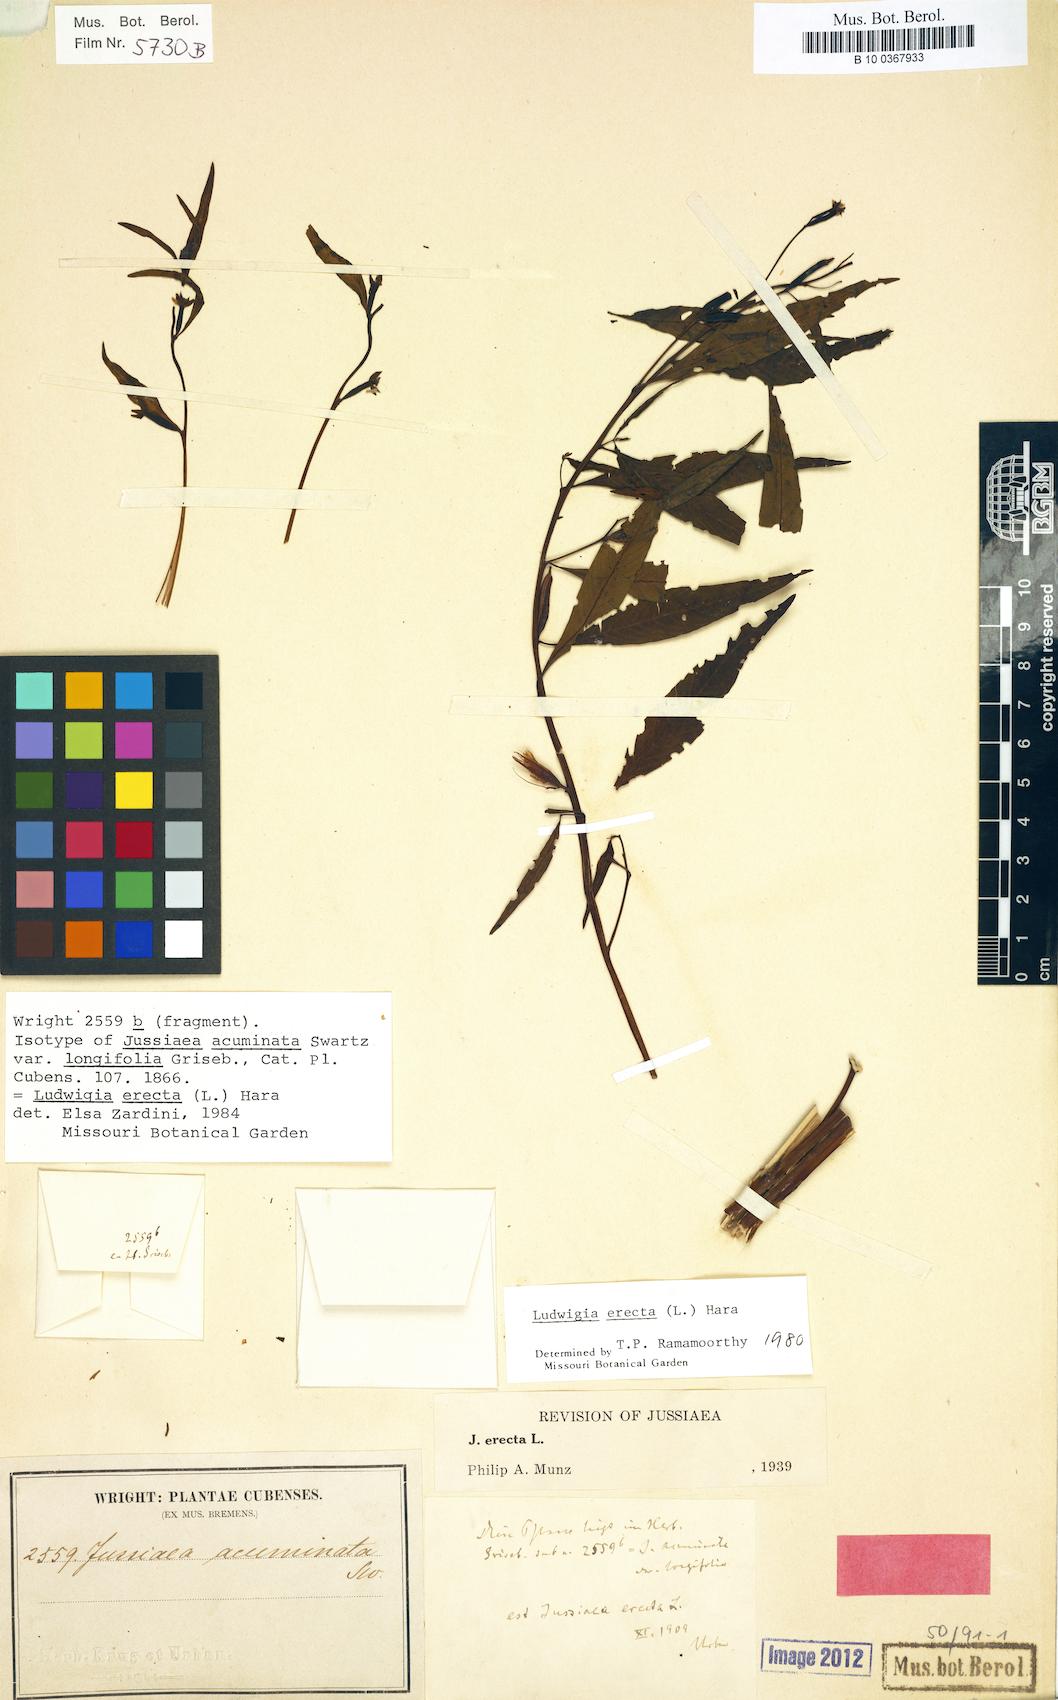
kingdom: Plantae
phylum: Tracheophyta
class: Magnoliopsida
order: Myrtales
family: Onagraceae
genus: Ludwigia
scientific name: Ludwigia erecta
